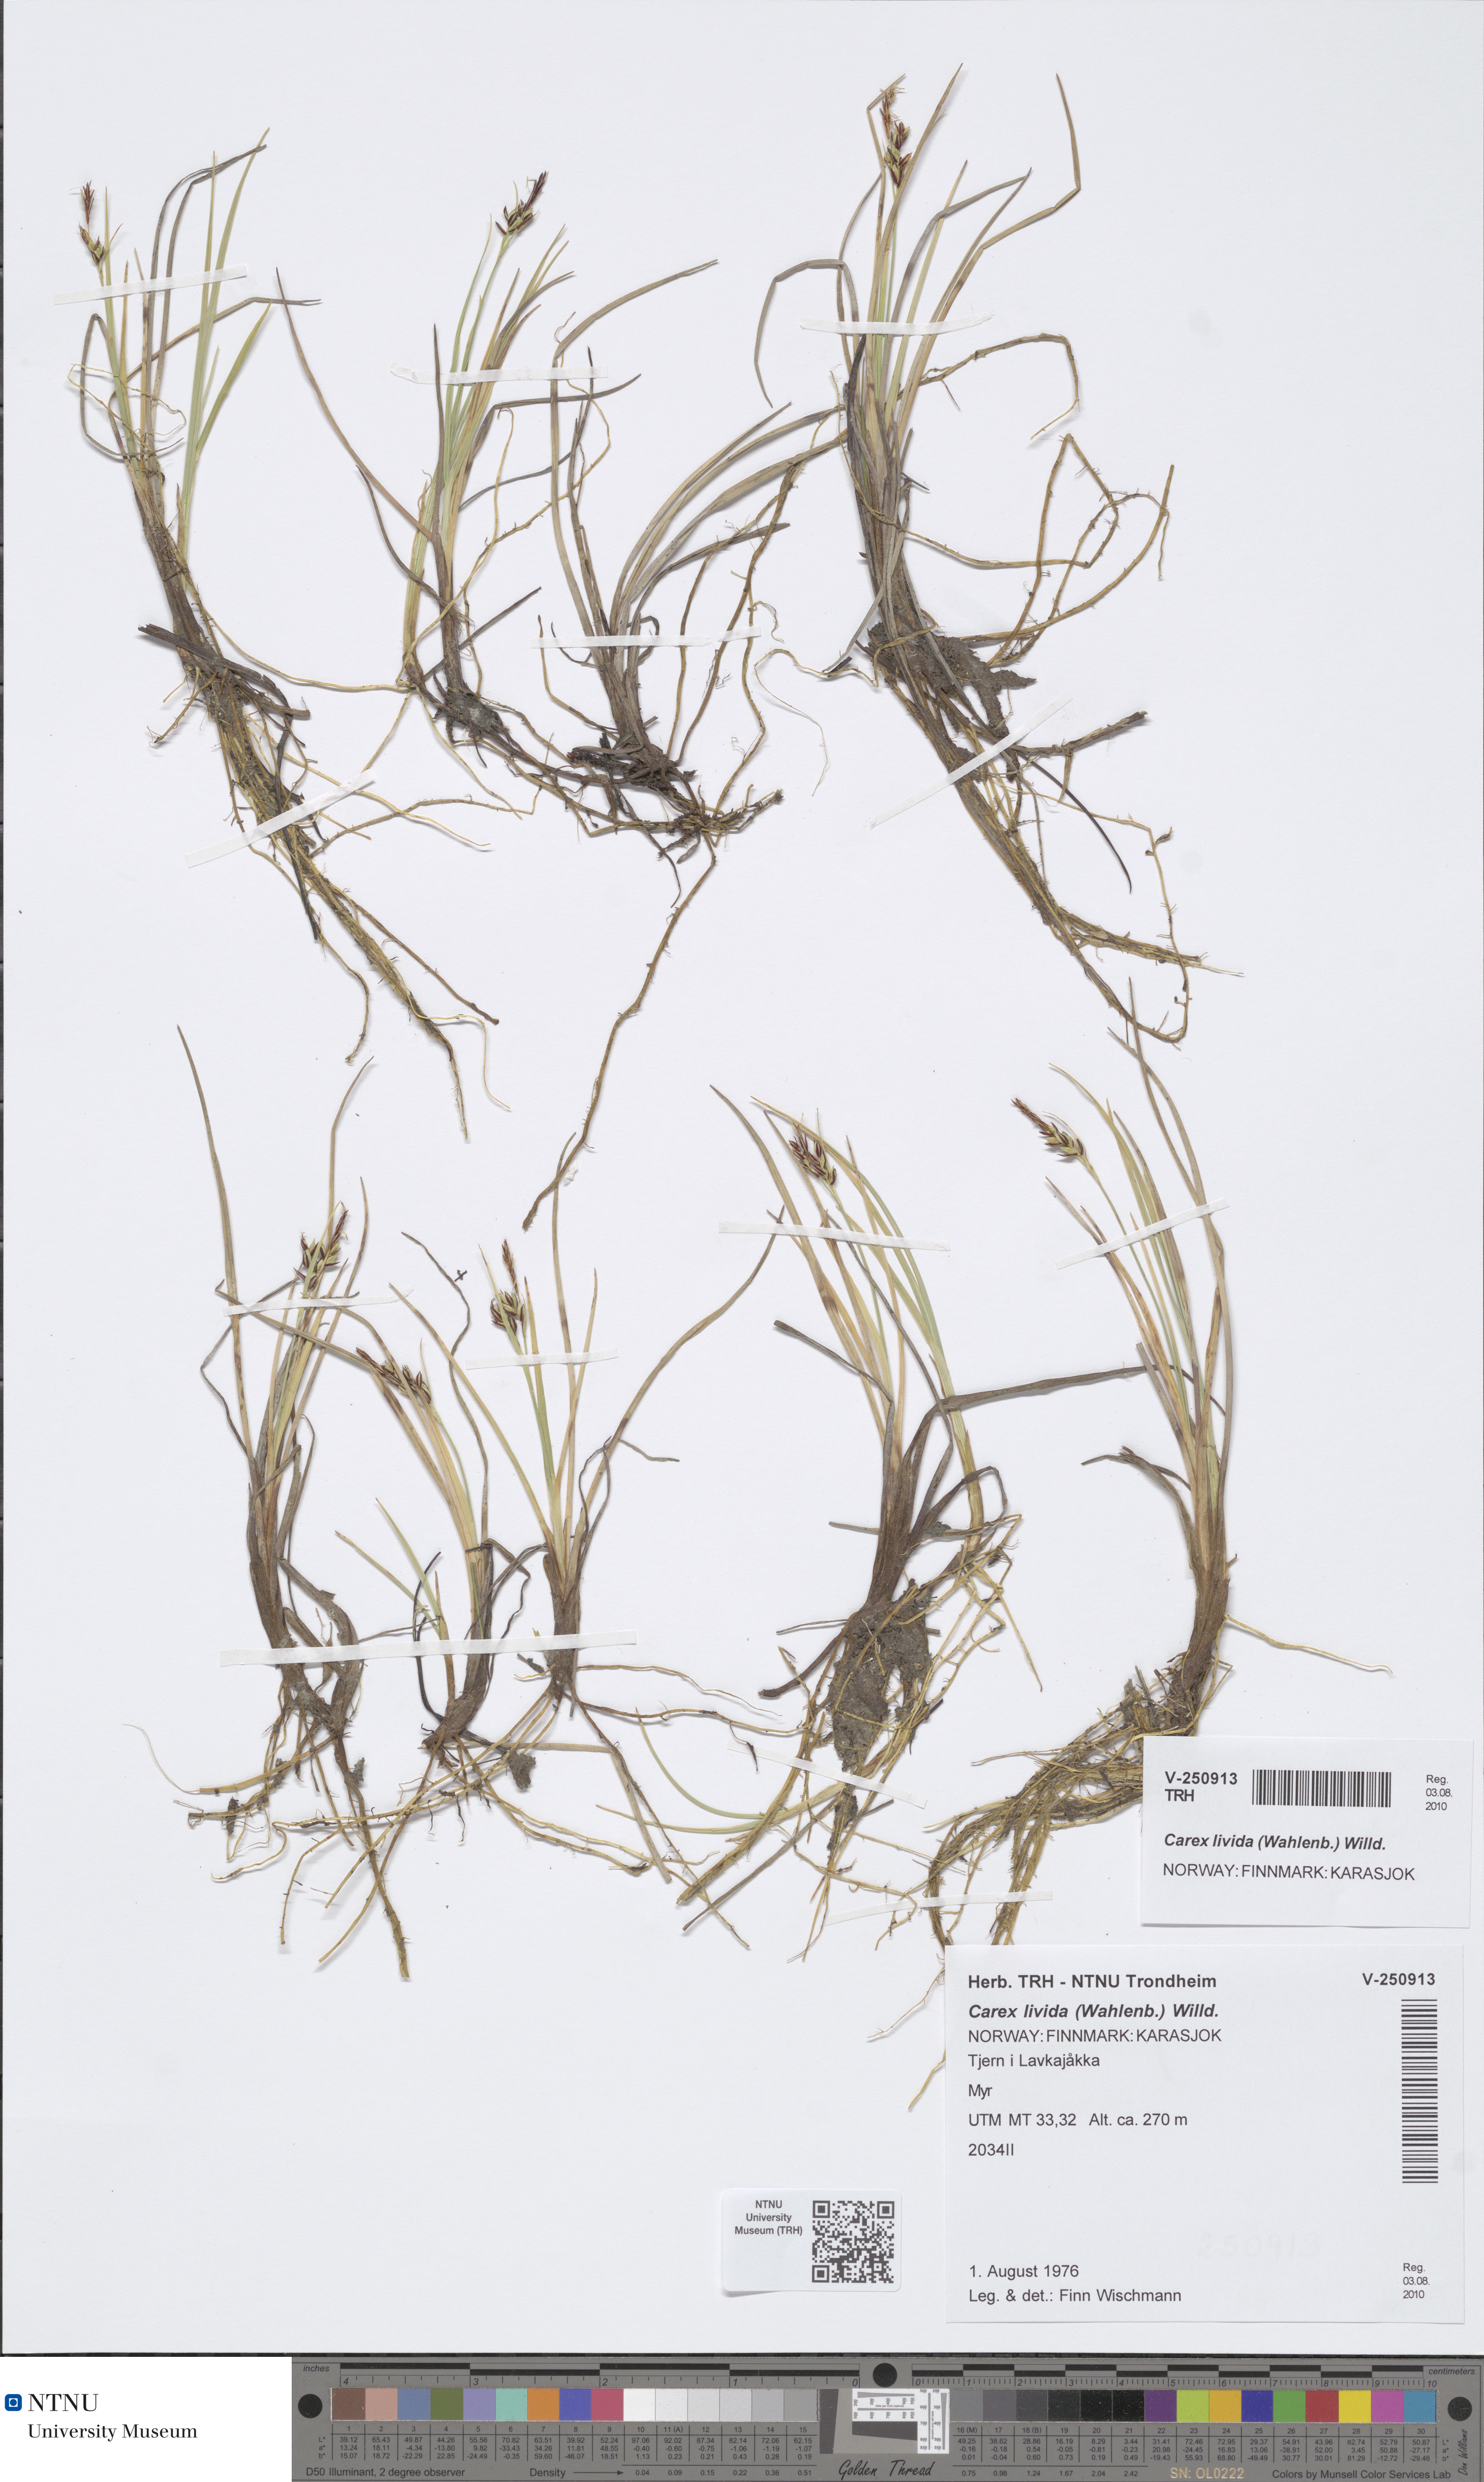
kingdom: Plantae
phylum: Tracheophyta
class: Liliopsida
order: Poales
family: Cyperaceae
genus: Carex
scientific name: Carex livida
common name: Livid sedge
